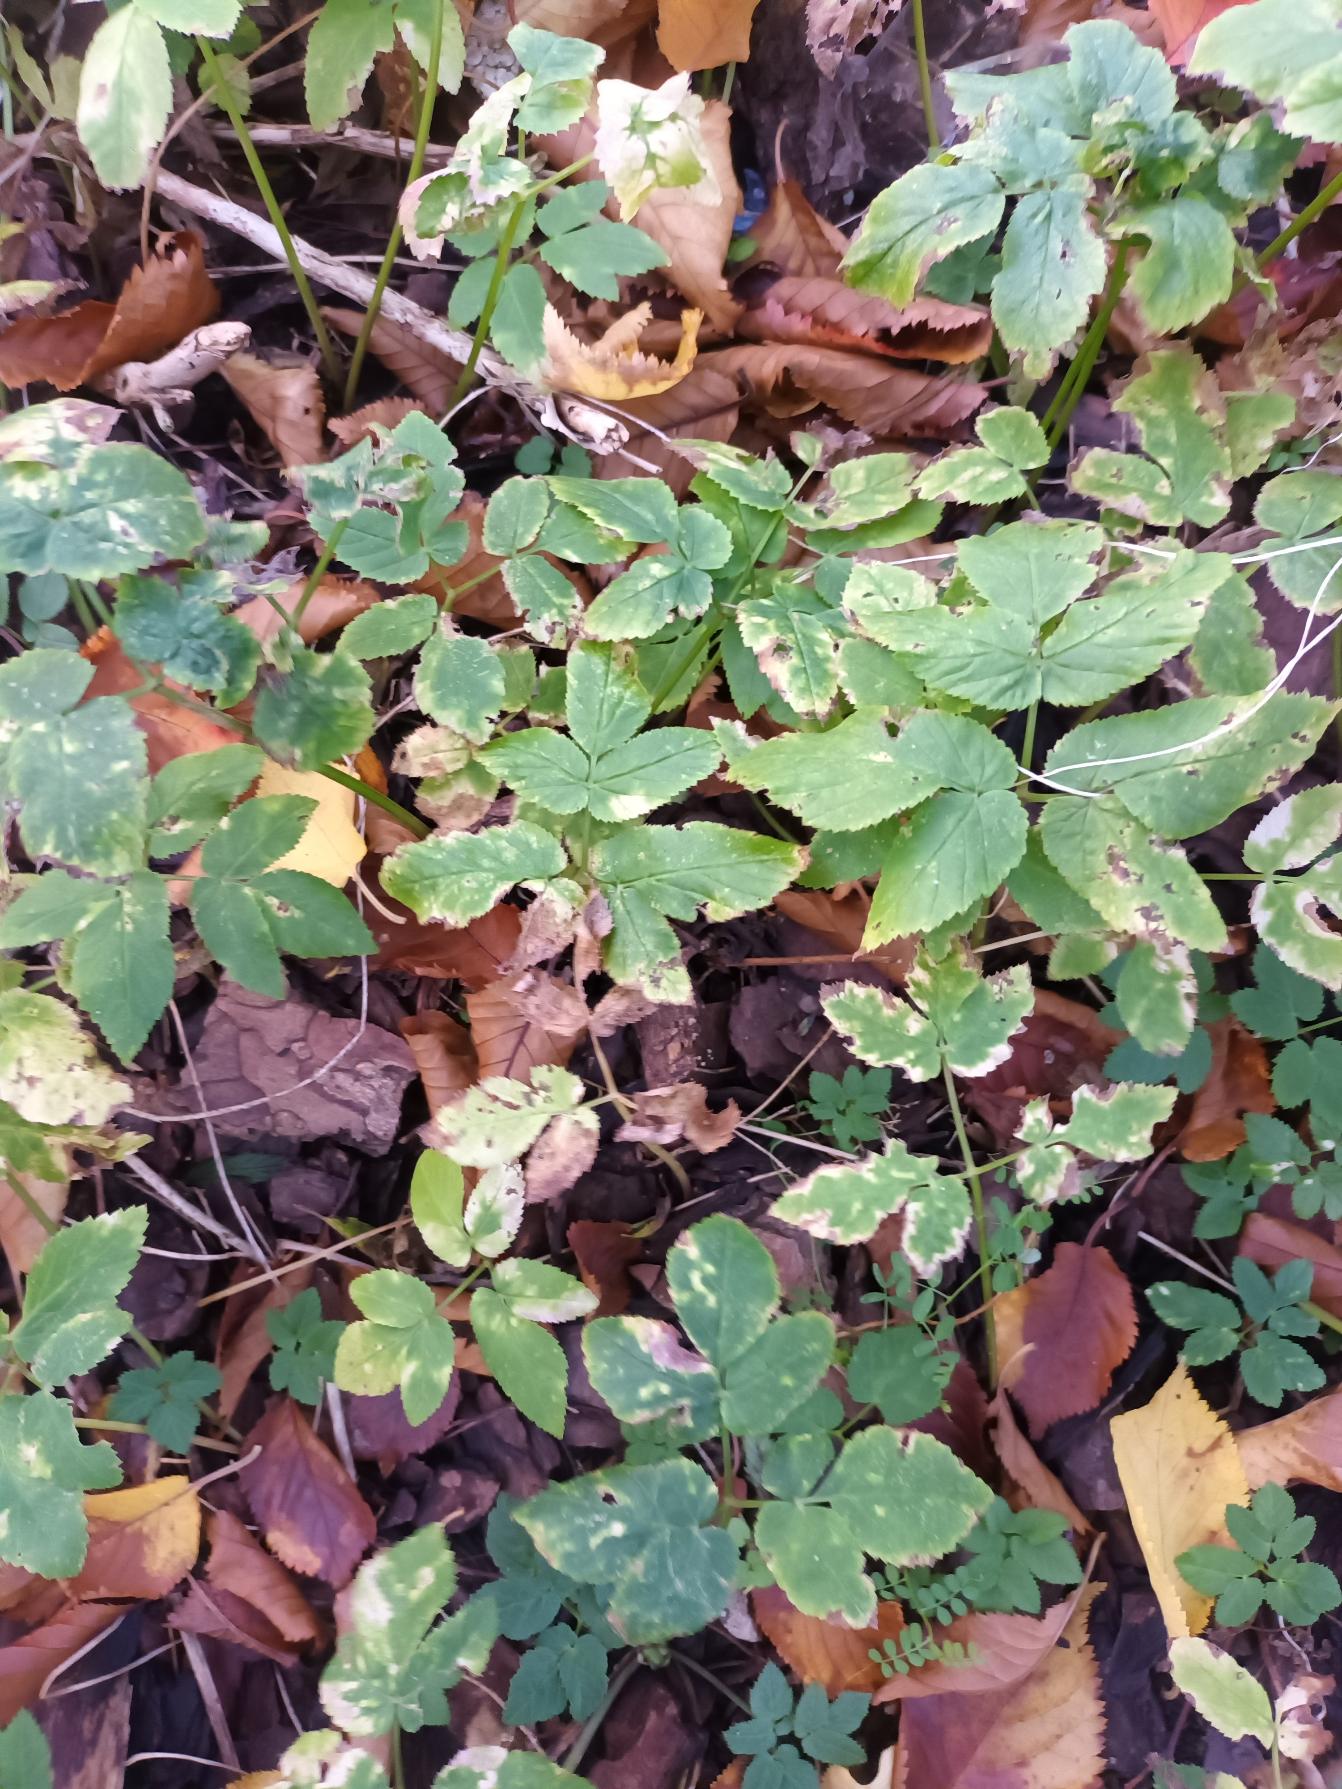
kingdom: Plantae
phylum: Tracheophyta
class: Magnoliopsida
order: Apiales
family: Apiaceae
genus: Aegopodium
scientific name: Aegopodium podagraria
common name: Skvalderkål
